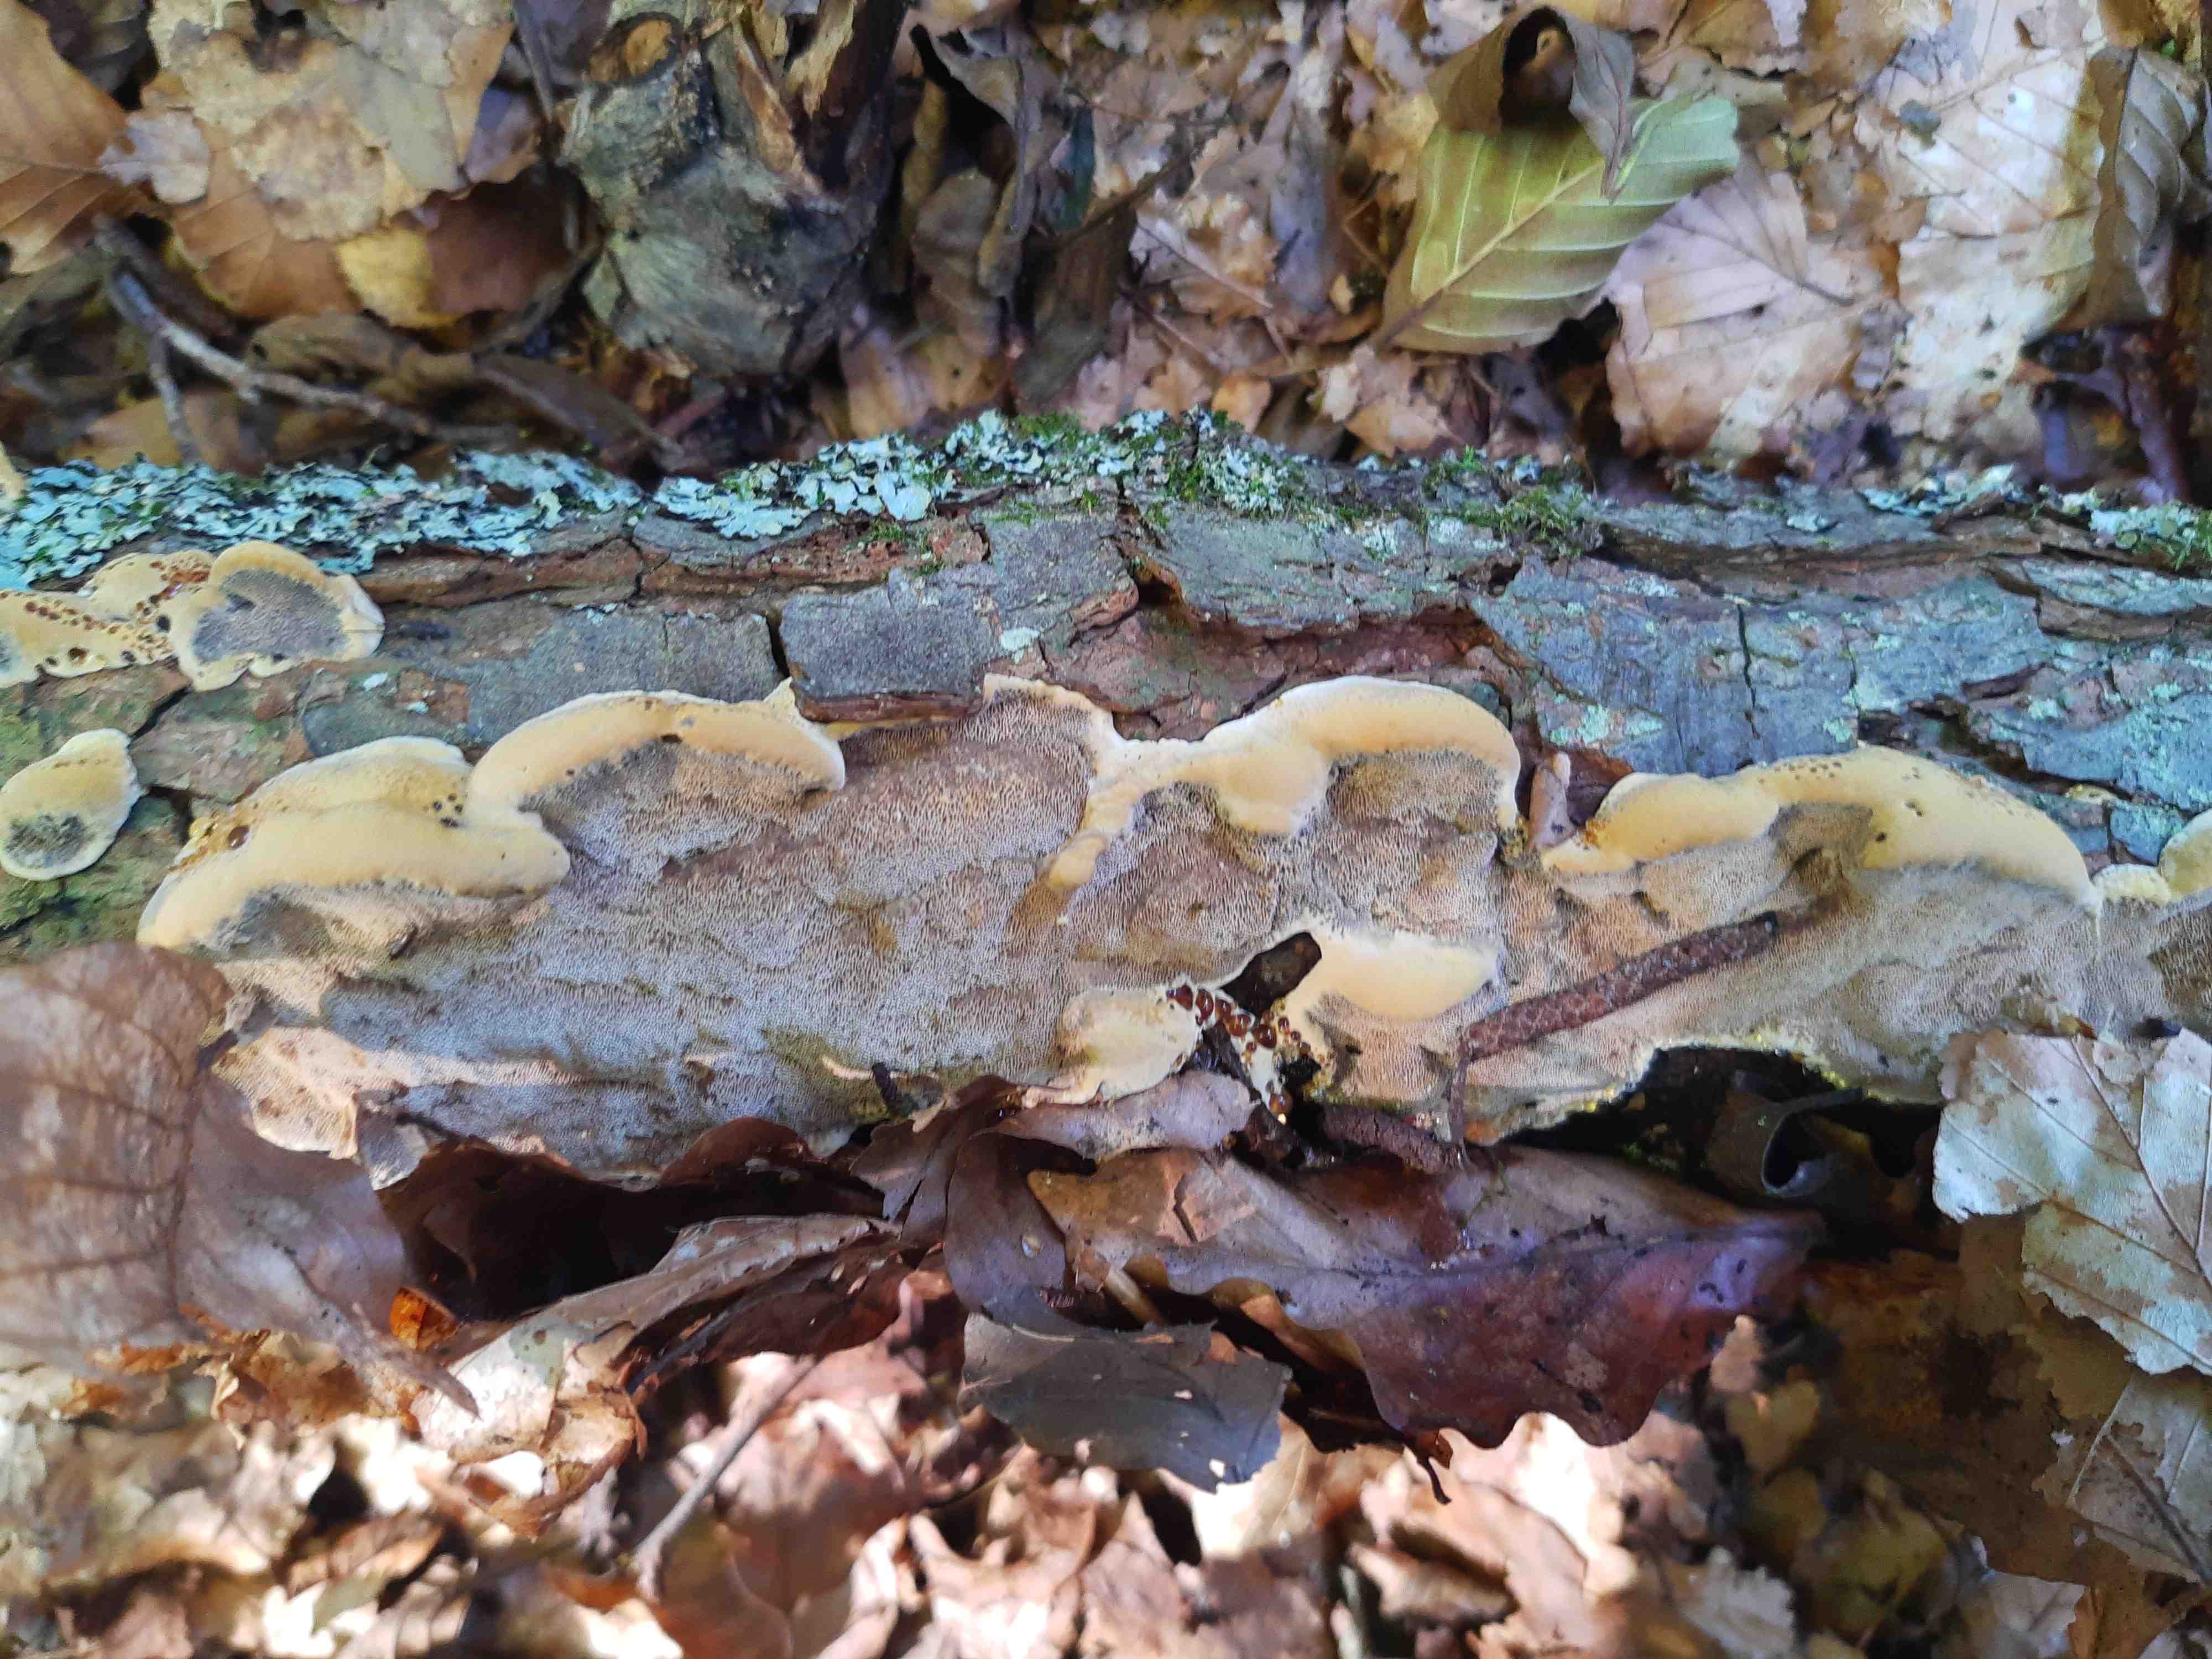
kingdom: Fungi
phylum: Basidiomycota
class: Agaricomycetes
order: Hymenochaetales
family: Hymenochaetaceae
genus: Xanthoporia
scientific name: Xanthoporia radiata
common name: elle-spejlporesvamp
